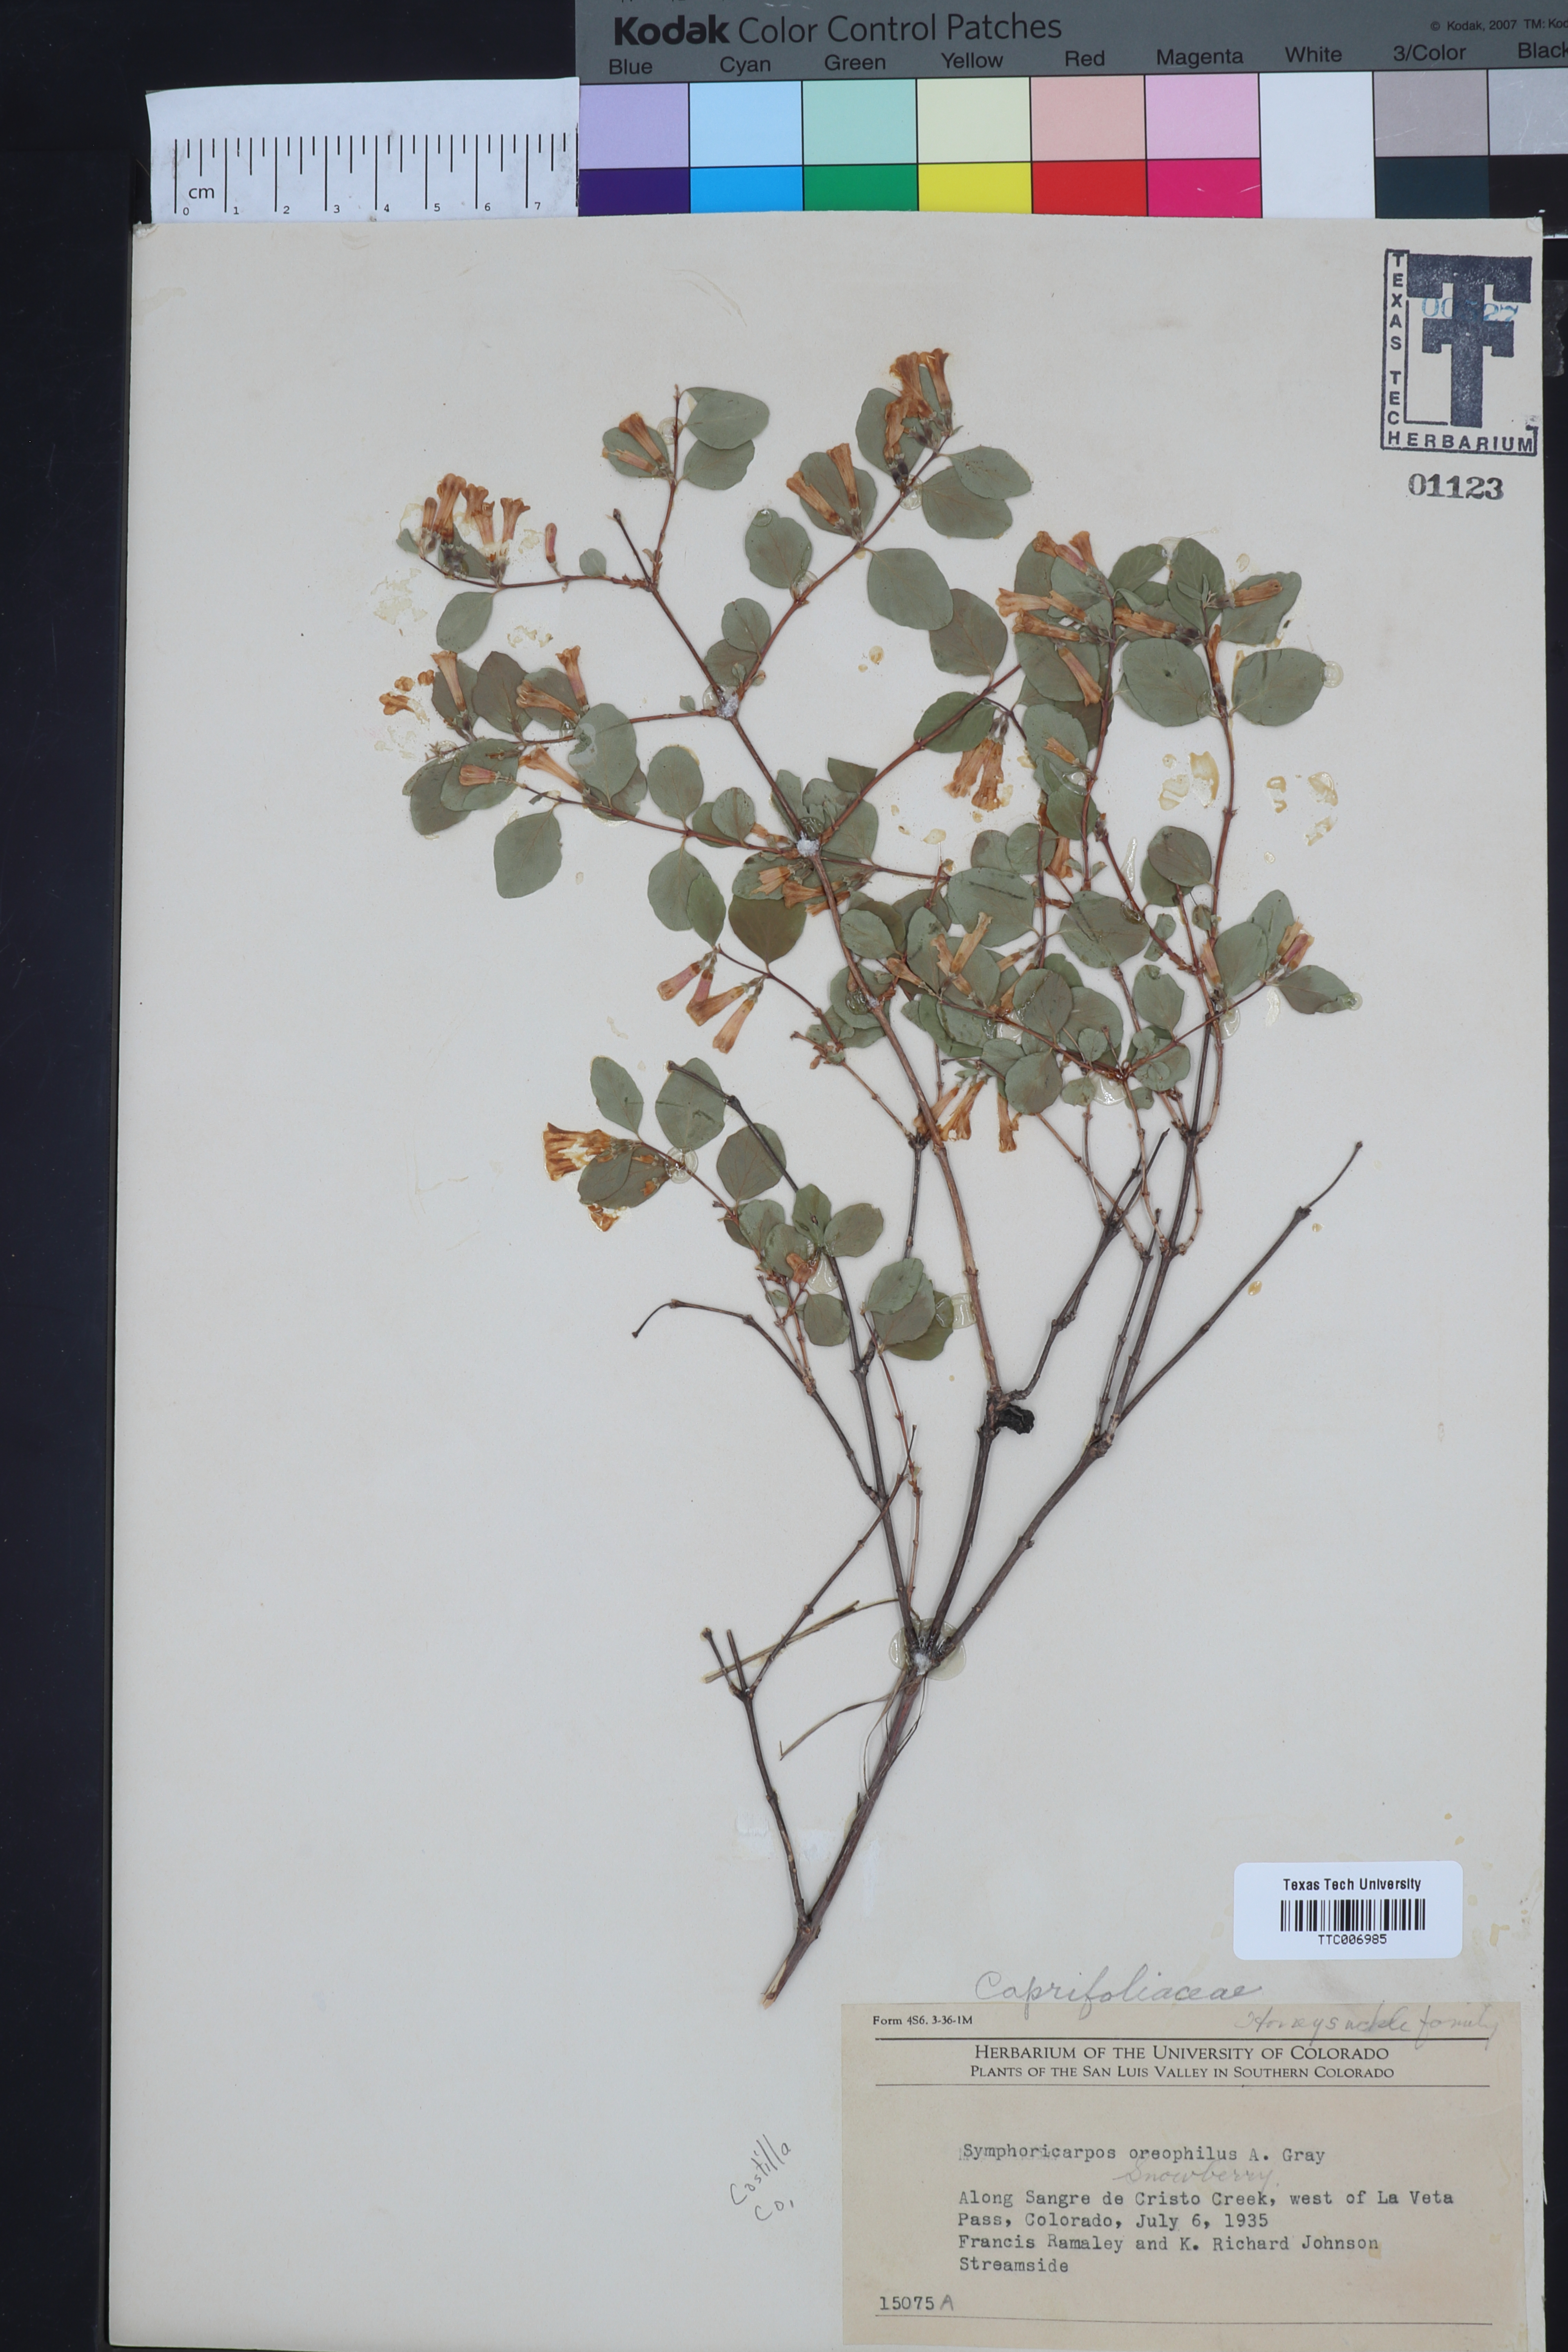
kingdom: Plantae
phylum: Tracheophyta
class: Magnoliopsida
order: Dipsacales
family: Caprifoliaceae
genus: Symphoricarpos
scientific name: Symphoricarpos oreophilus
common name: Mountain snowberry
